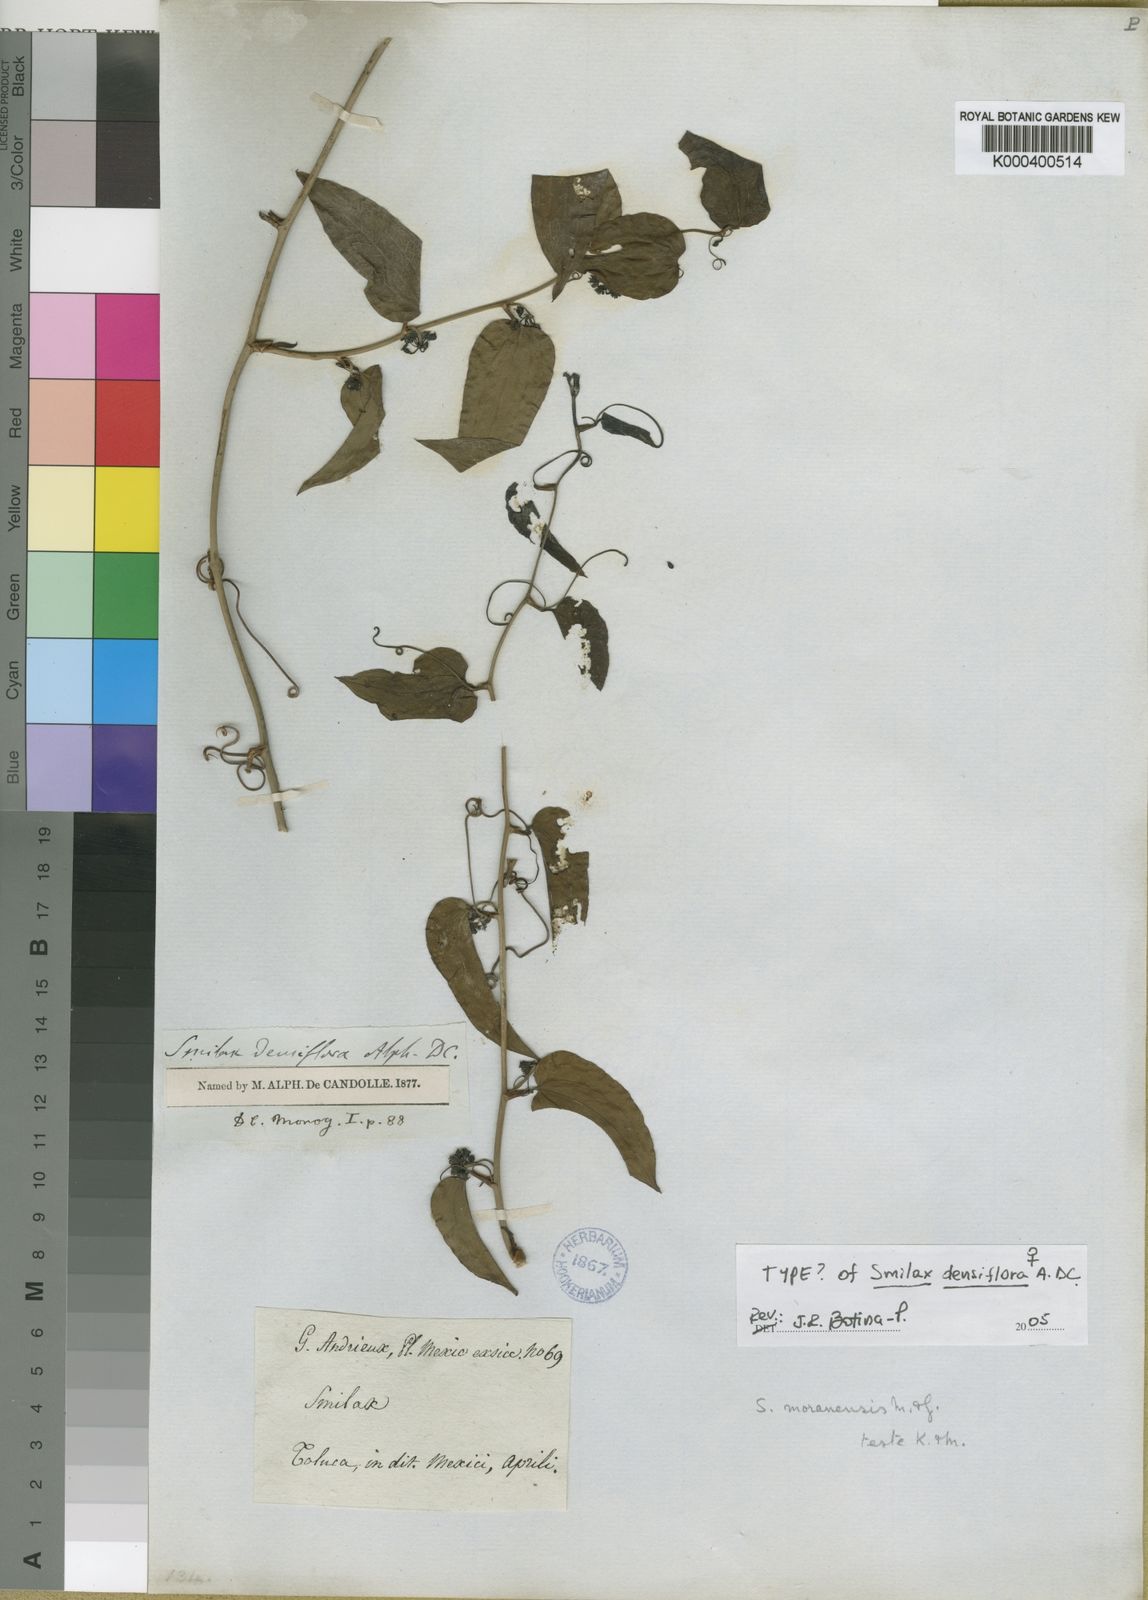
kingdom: Plantae
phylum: Tracheophyta
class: Liliopsida
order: Liliales
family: Smilacaceae
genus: Smilax
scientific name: Smilax moranensis
